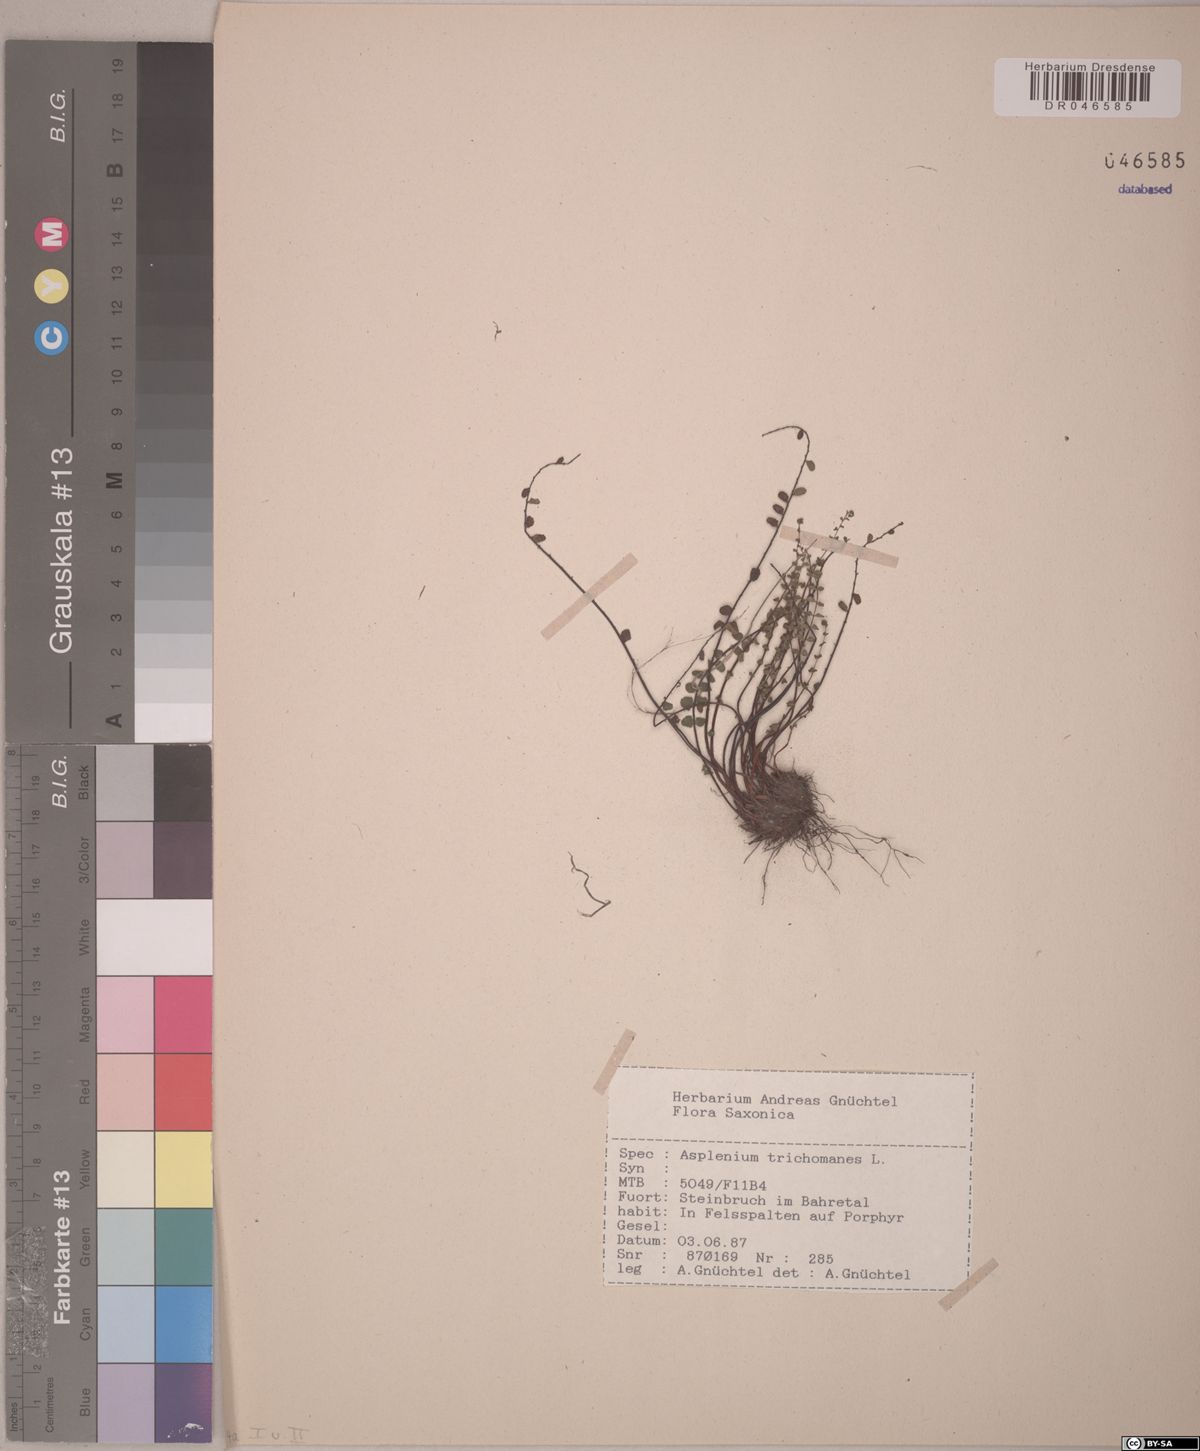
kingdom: Plantae
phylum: Tracheophyta
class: Polypodiopsida
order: Polypodiales
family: Aspleniaceae
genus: Asplenium
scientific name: Asplenium trichomanes
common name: Maidenhair spleenwort
